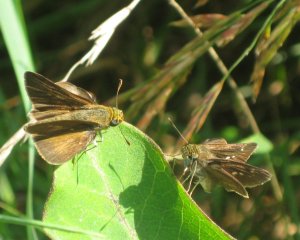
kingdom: Animalia
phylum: Arthropoda
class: Insecta
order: Lepidoptera
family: Hesperiidae
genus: Euphyes
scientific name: Euphyes vestris
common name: Dun Skipper
